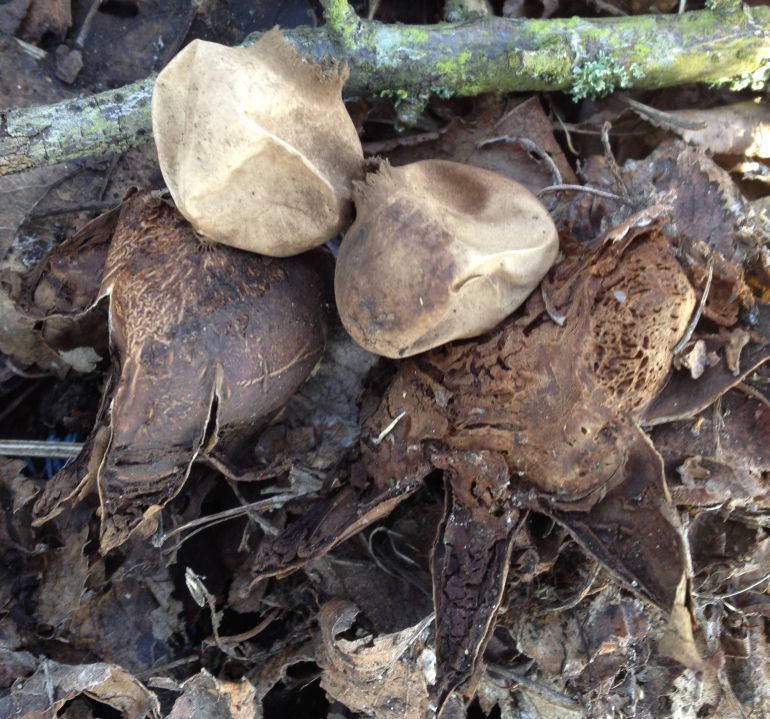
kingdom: Fungi
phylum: Basidiomycota
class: Agaricomycetes
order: Geastrales
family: Geastraceae
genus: Geastrum
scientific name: Geastrum michelianum
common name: kødet stjernebold
